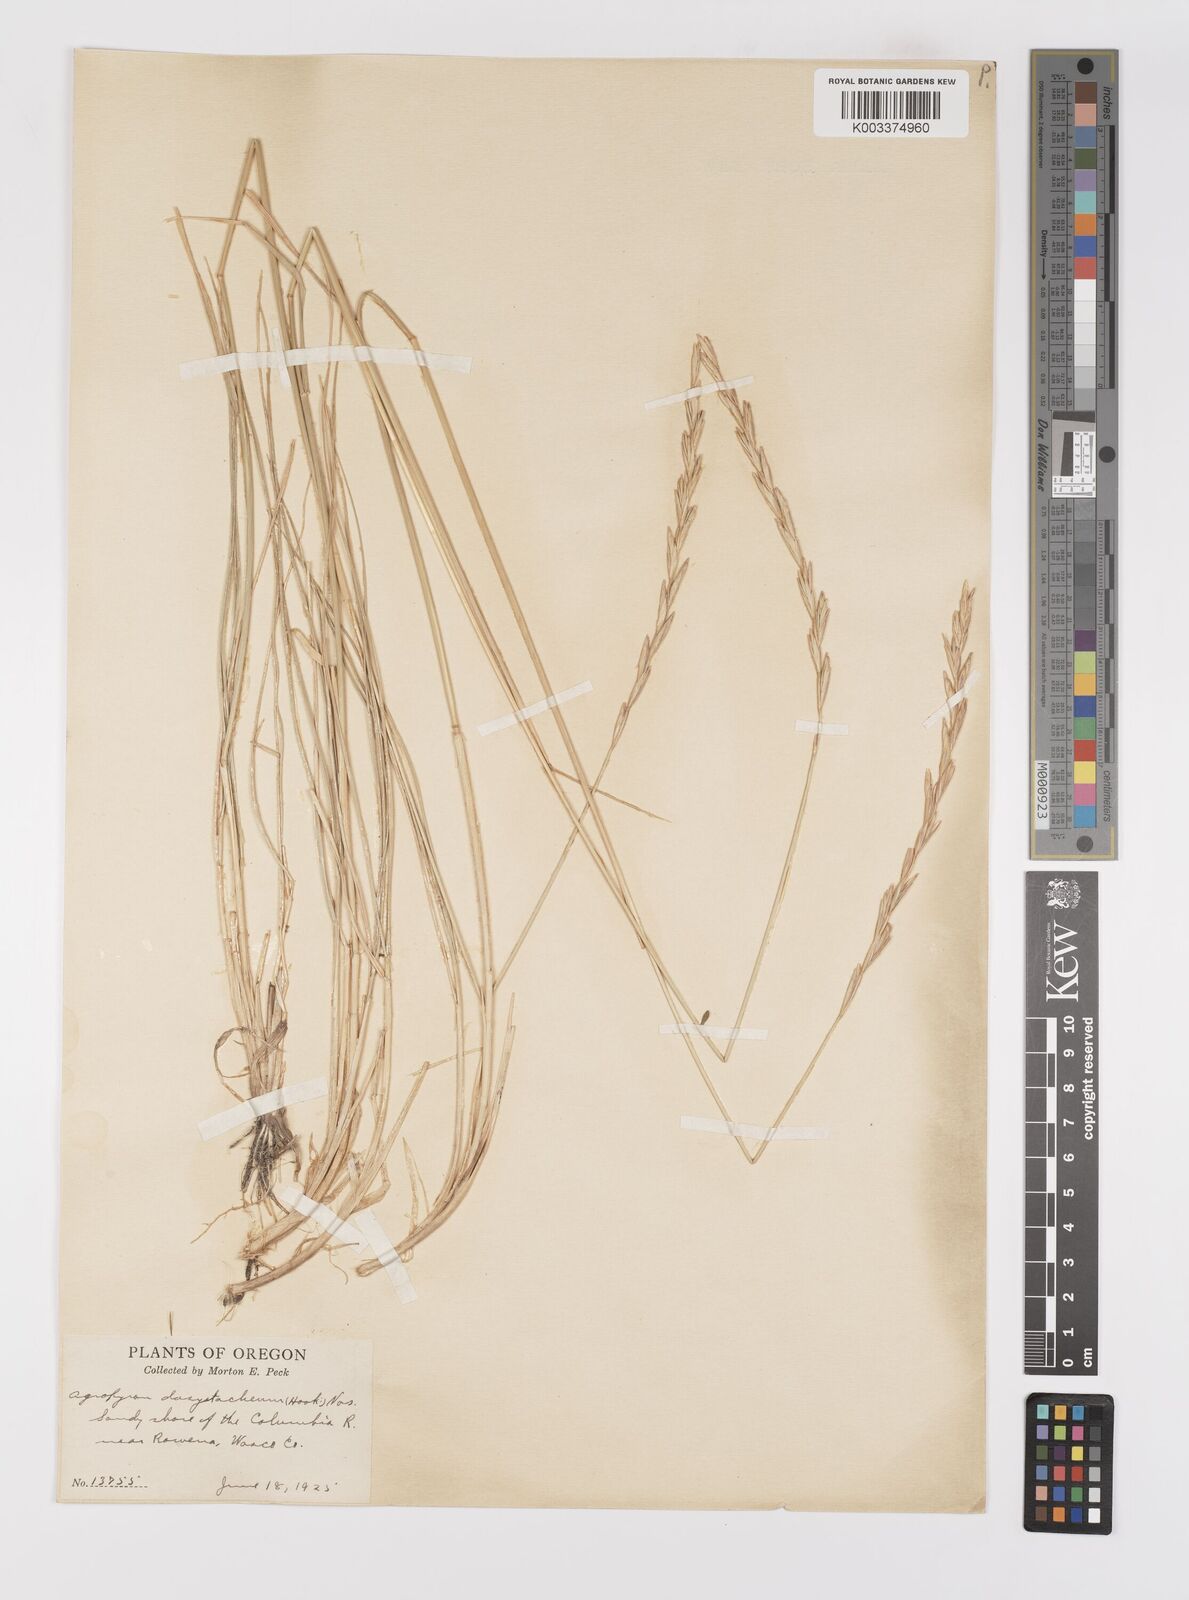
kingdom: Plantae
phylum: Tracheophyta
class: Liliopsida
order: Poales
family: Poaceae
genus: Elymus
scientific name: Elymus lanceolatus
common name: Thick-spike wheatgrass
